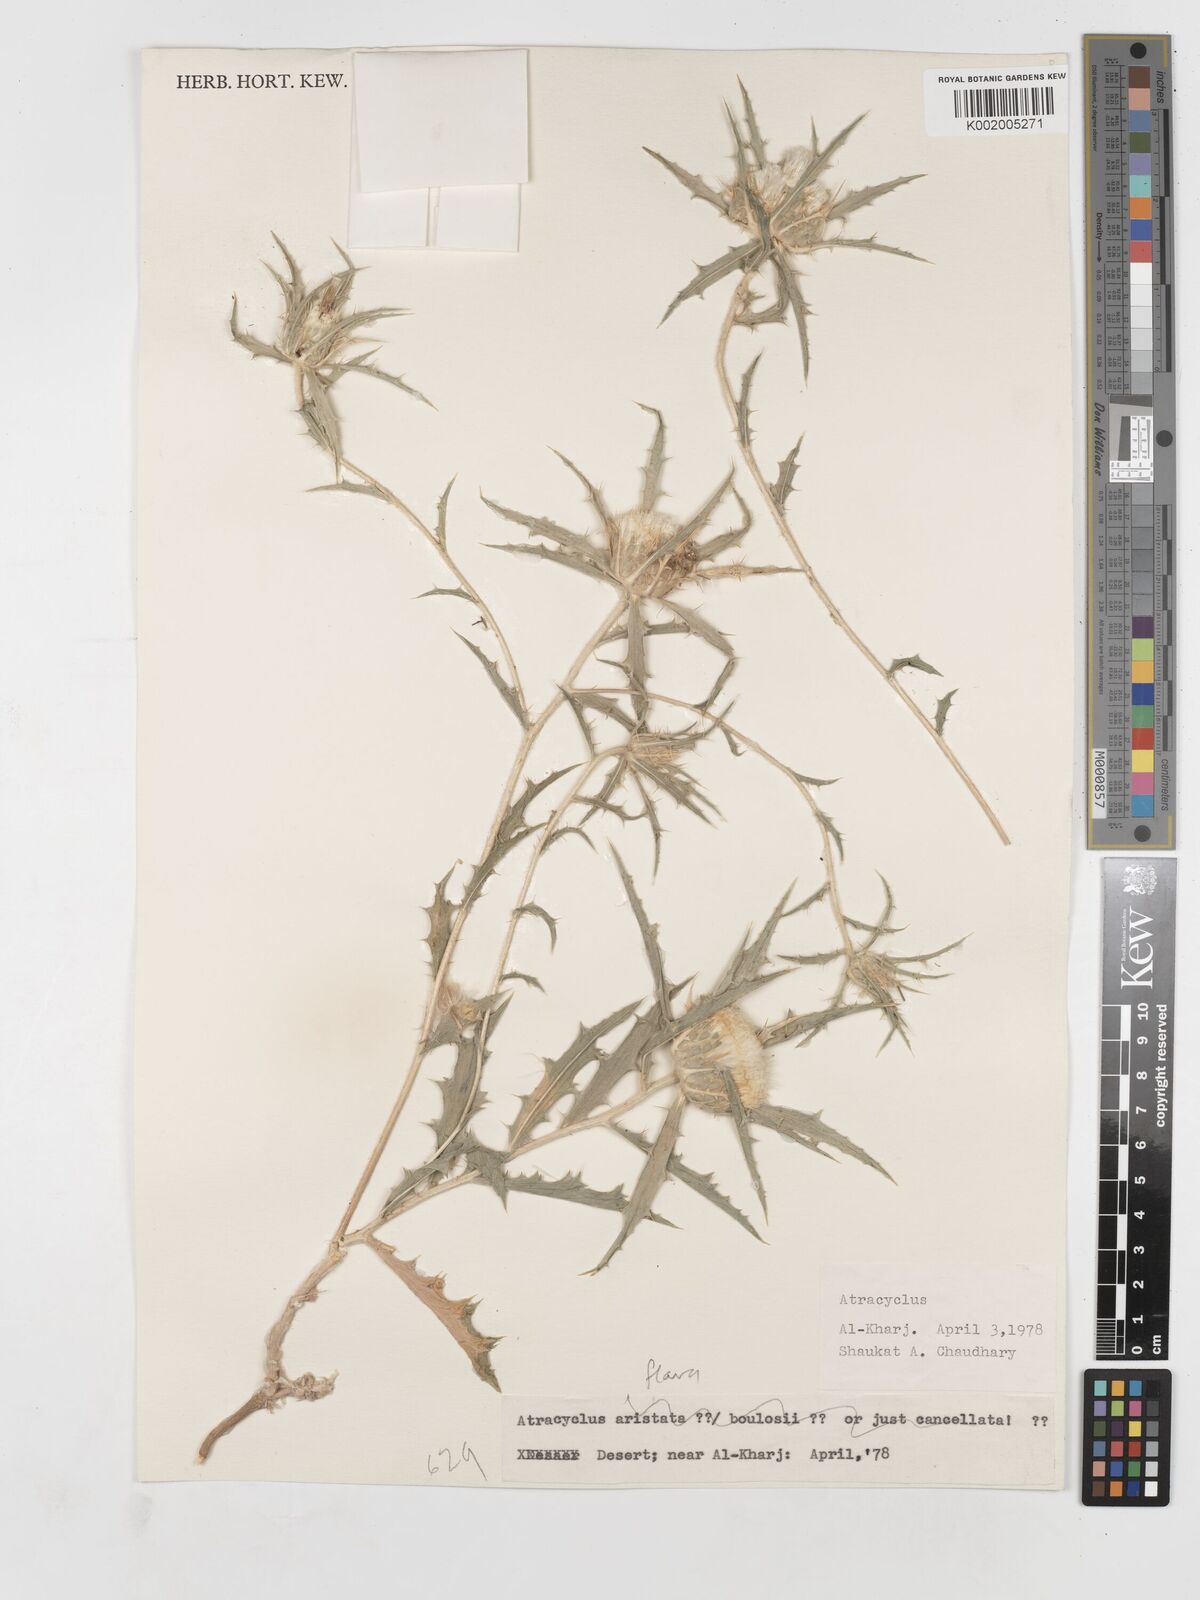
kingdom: Plantae
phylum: Tracheophyta
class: Magnoliopsida
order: Asterales
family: Asteraceae
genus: Atractylis
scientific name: Atractylis carduus
